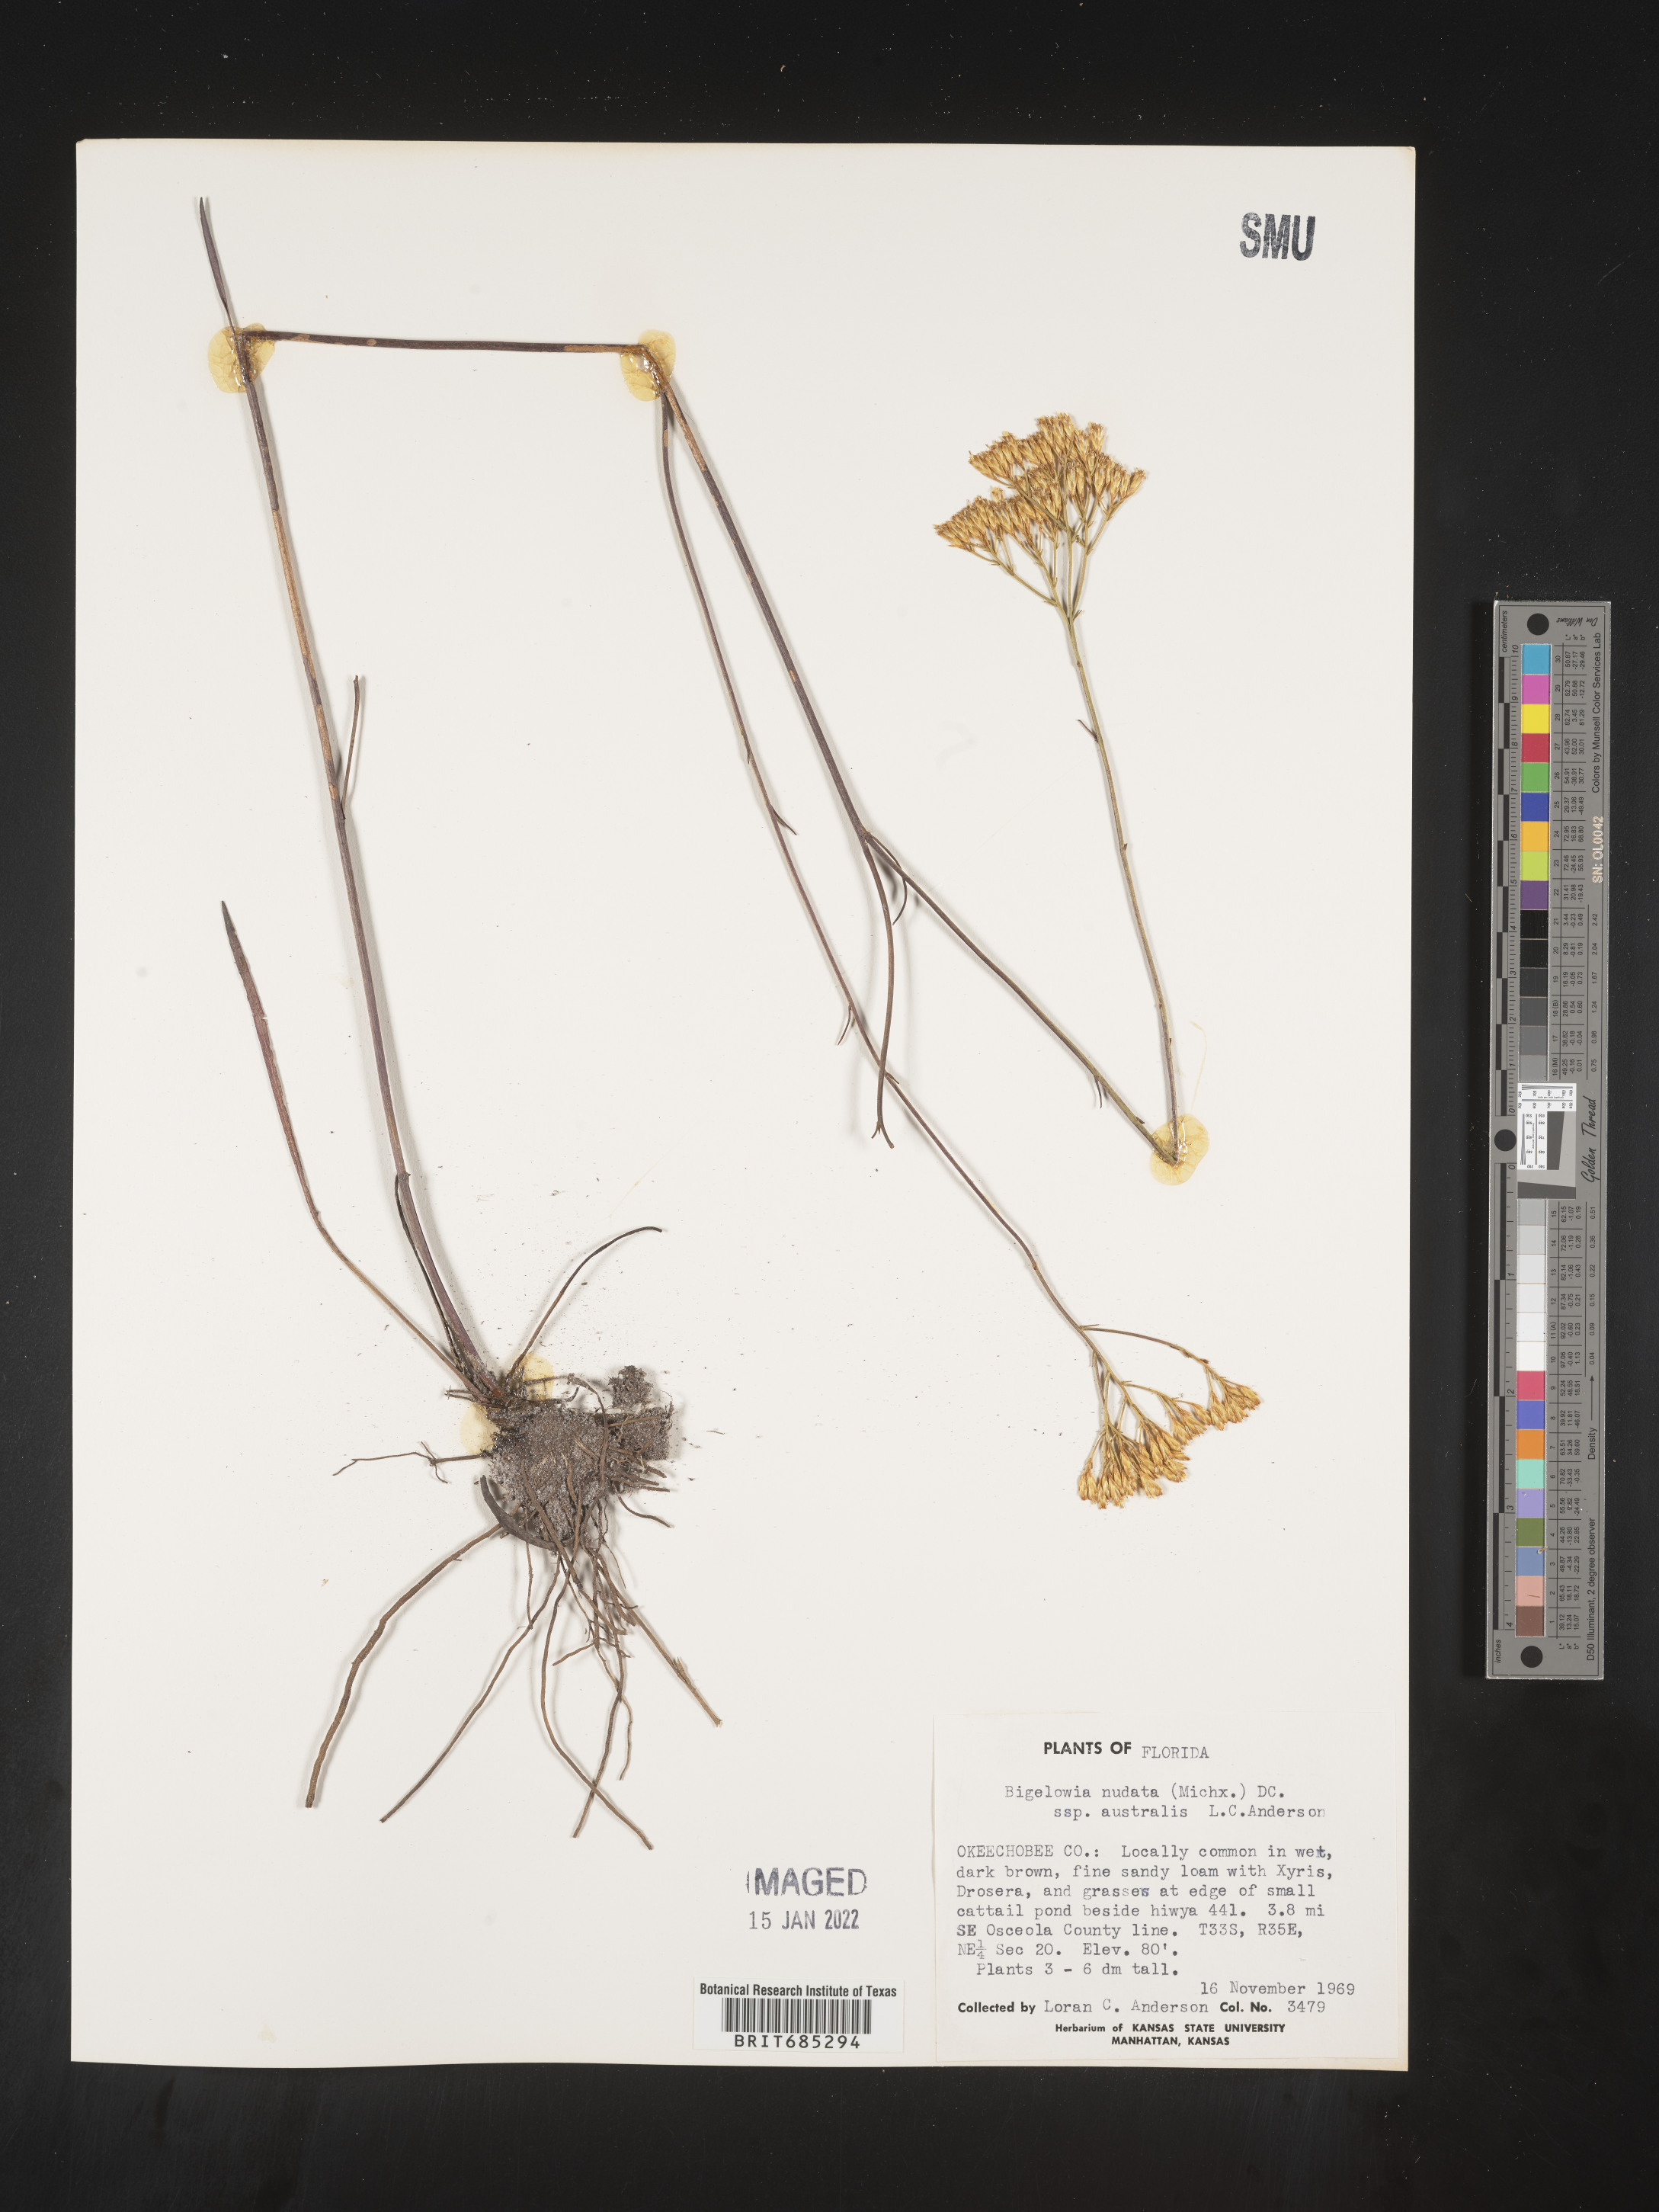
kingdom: Plantae
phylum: Tracheophyta
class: Magnoliopsida
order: Asterales
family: Asteraceae
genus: Bigelowia
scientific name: Bigelowia nudata
